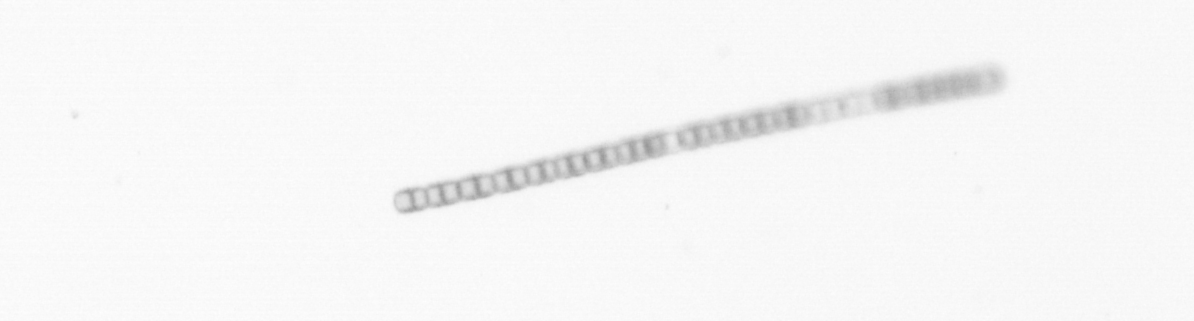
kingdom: Chromista
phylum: Ochrophyta
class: Bacillariophyceae
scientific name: Bacillariophyceae
